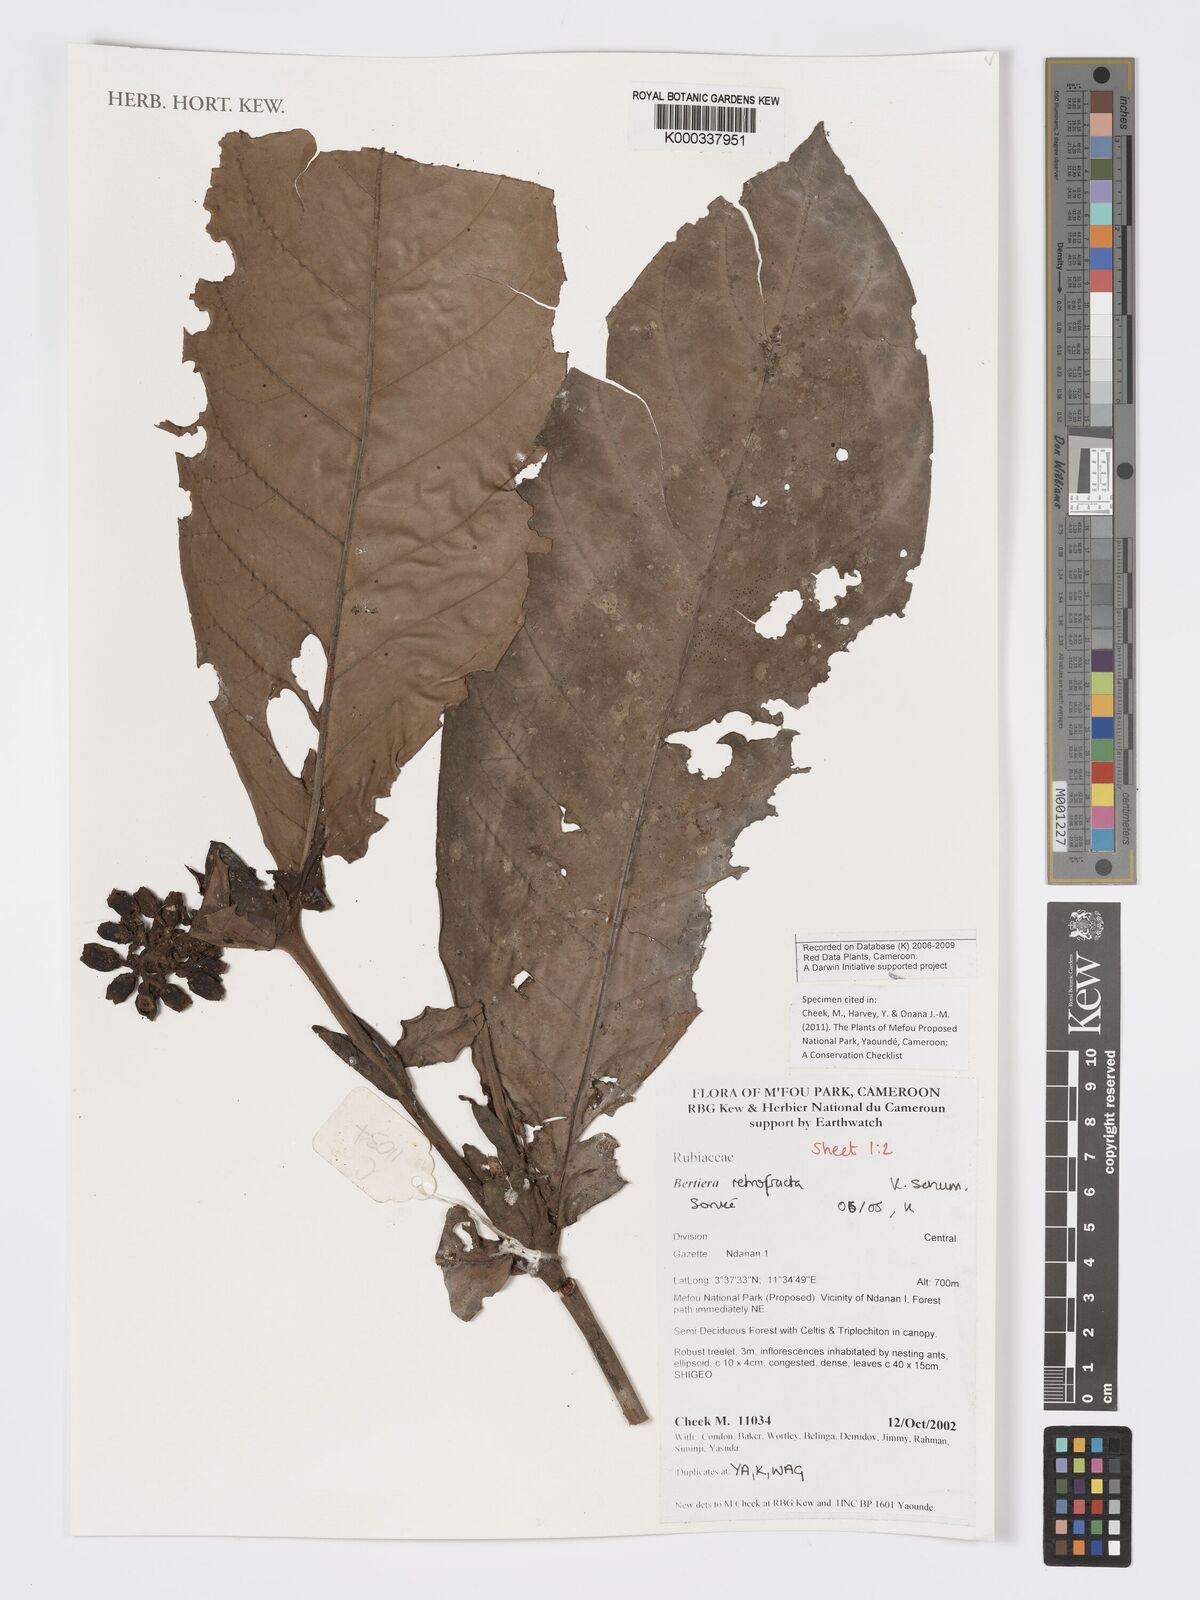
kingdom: Plantae
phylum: Tracheophyta
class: Magnoliopsida
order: Gentianales
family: Rubiaceae
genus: Bertiera
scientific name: Bertiera retrofracta
